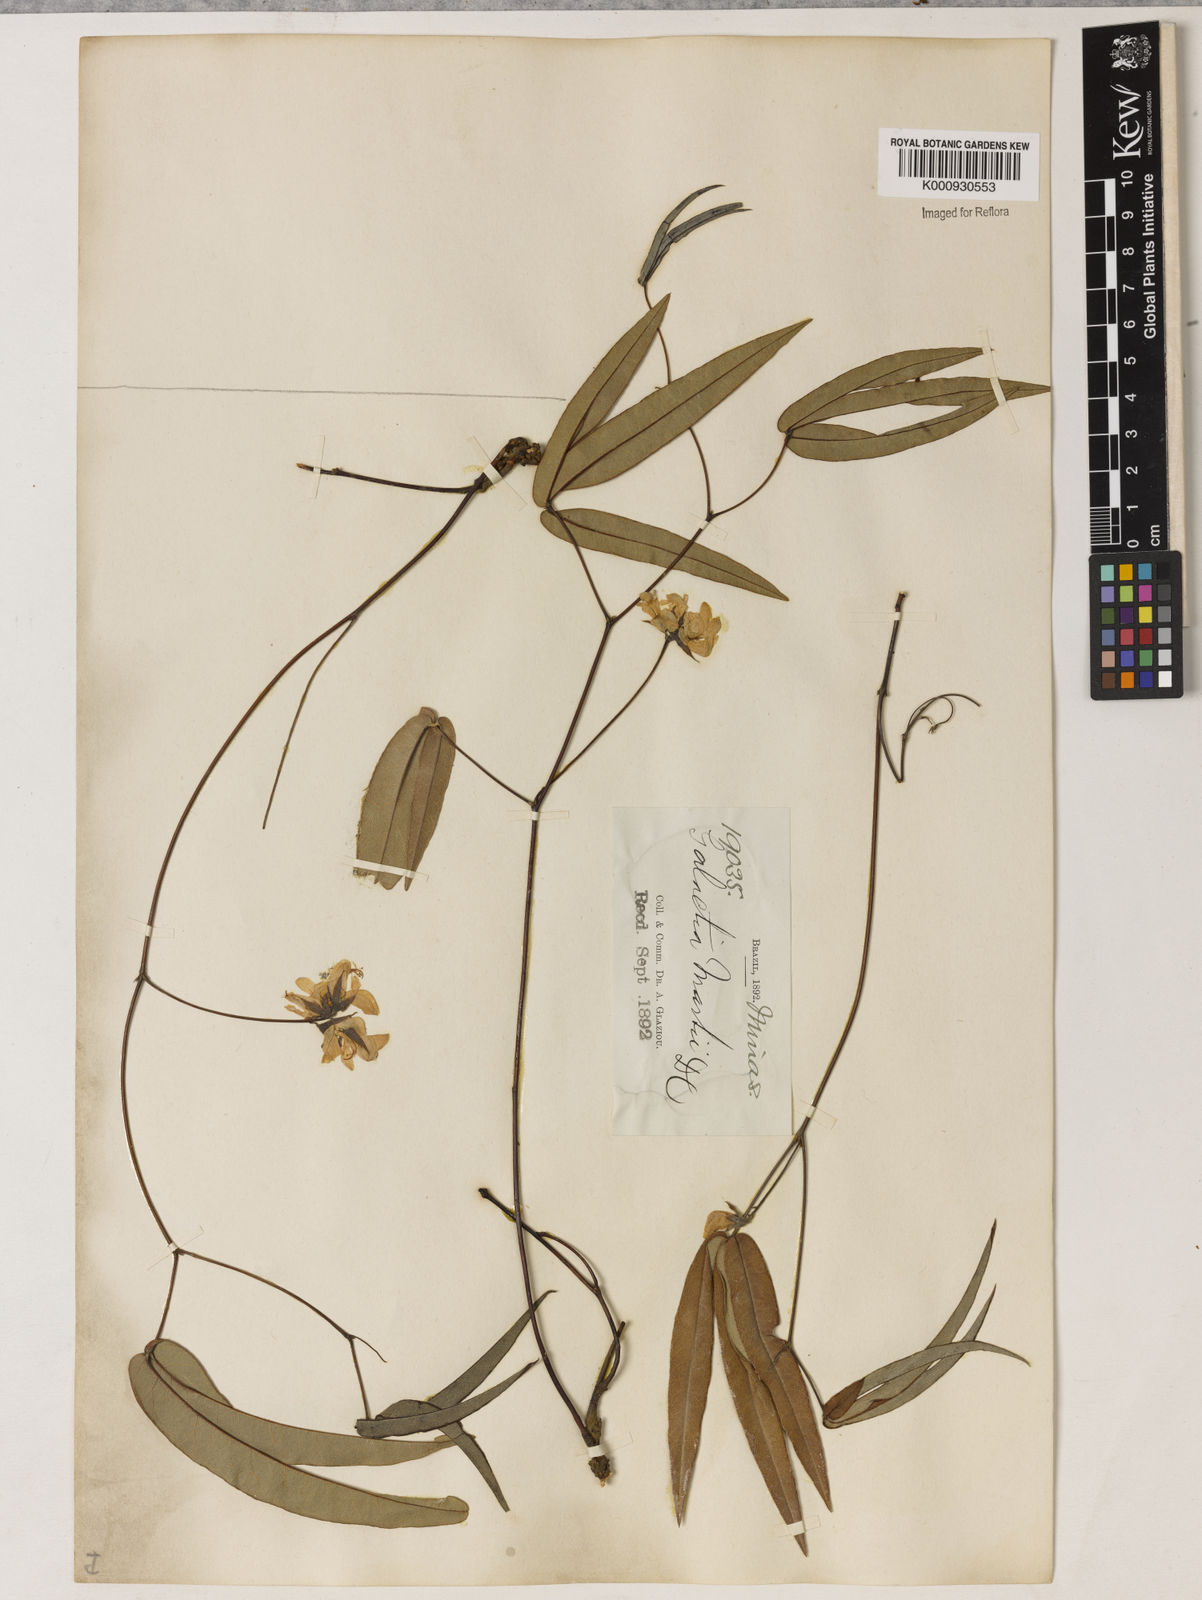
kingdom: Plantae
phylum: Tracheophyta
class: Magnoliopsida
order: Fabales
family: Fabaceae
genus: Betencourtia
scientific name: Betencourtia martii
